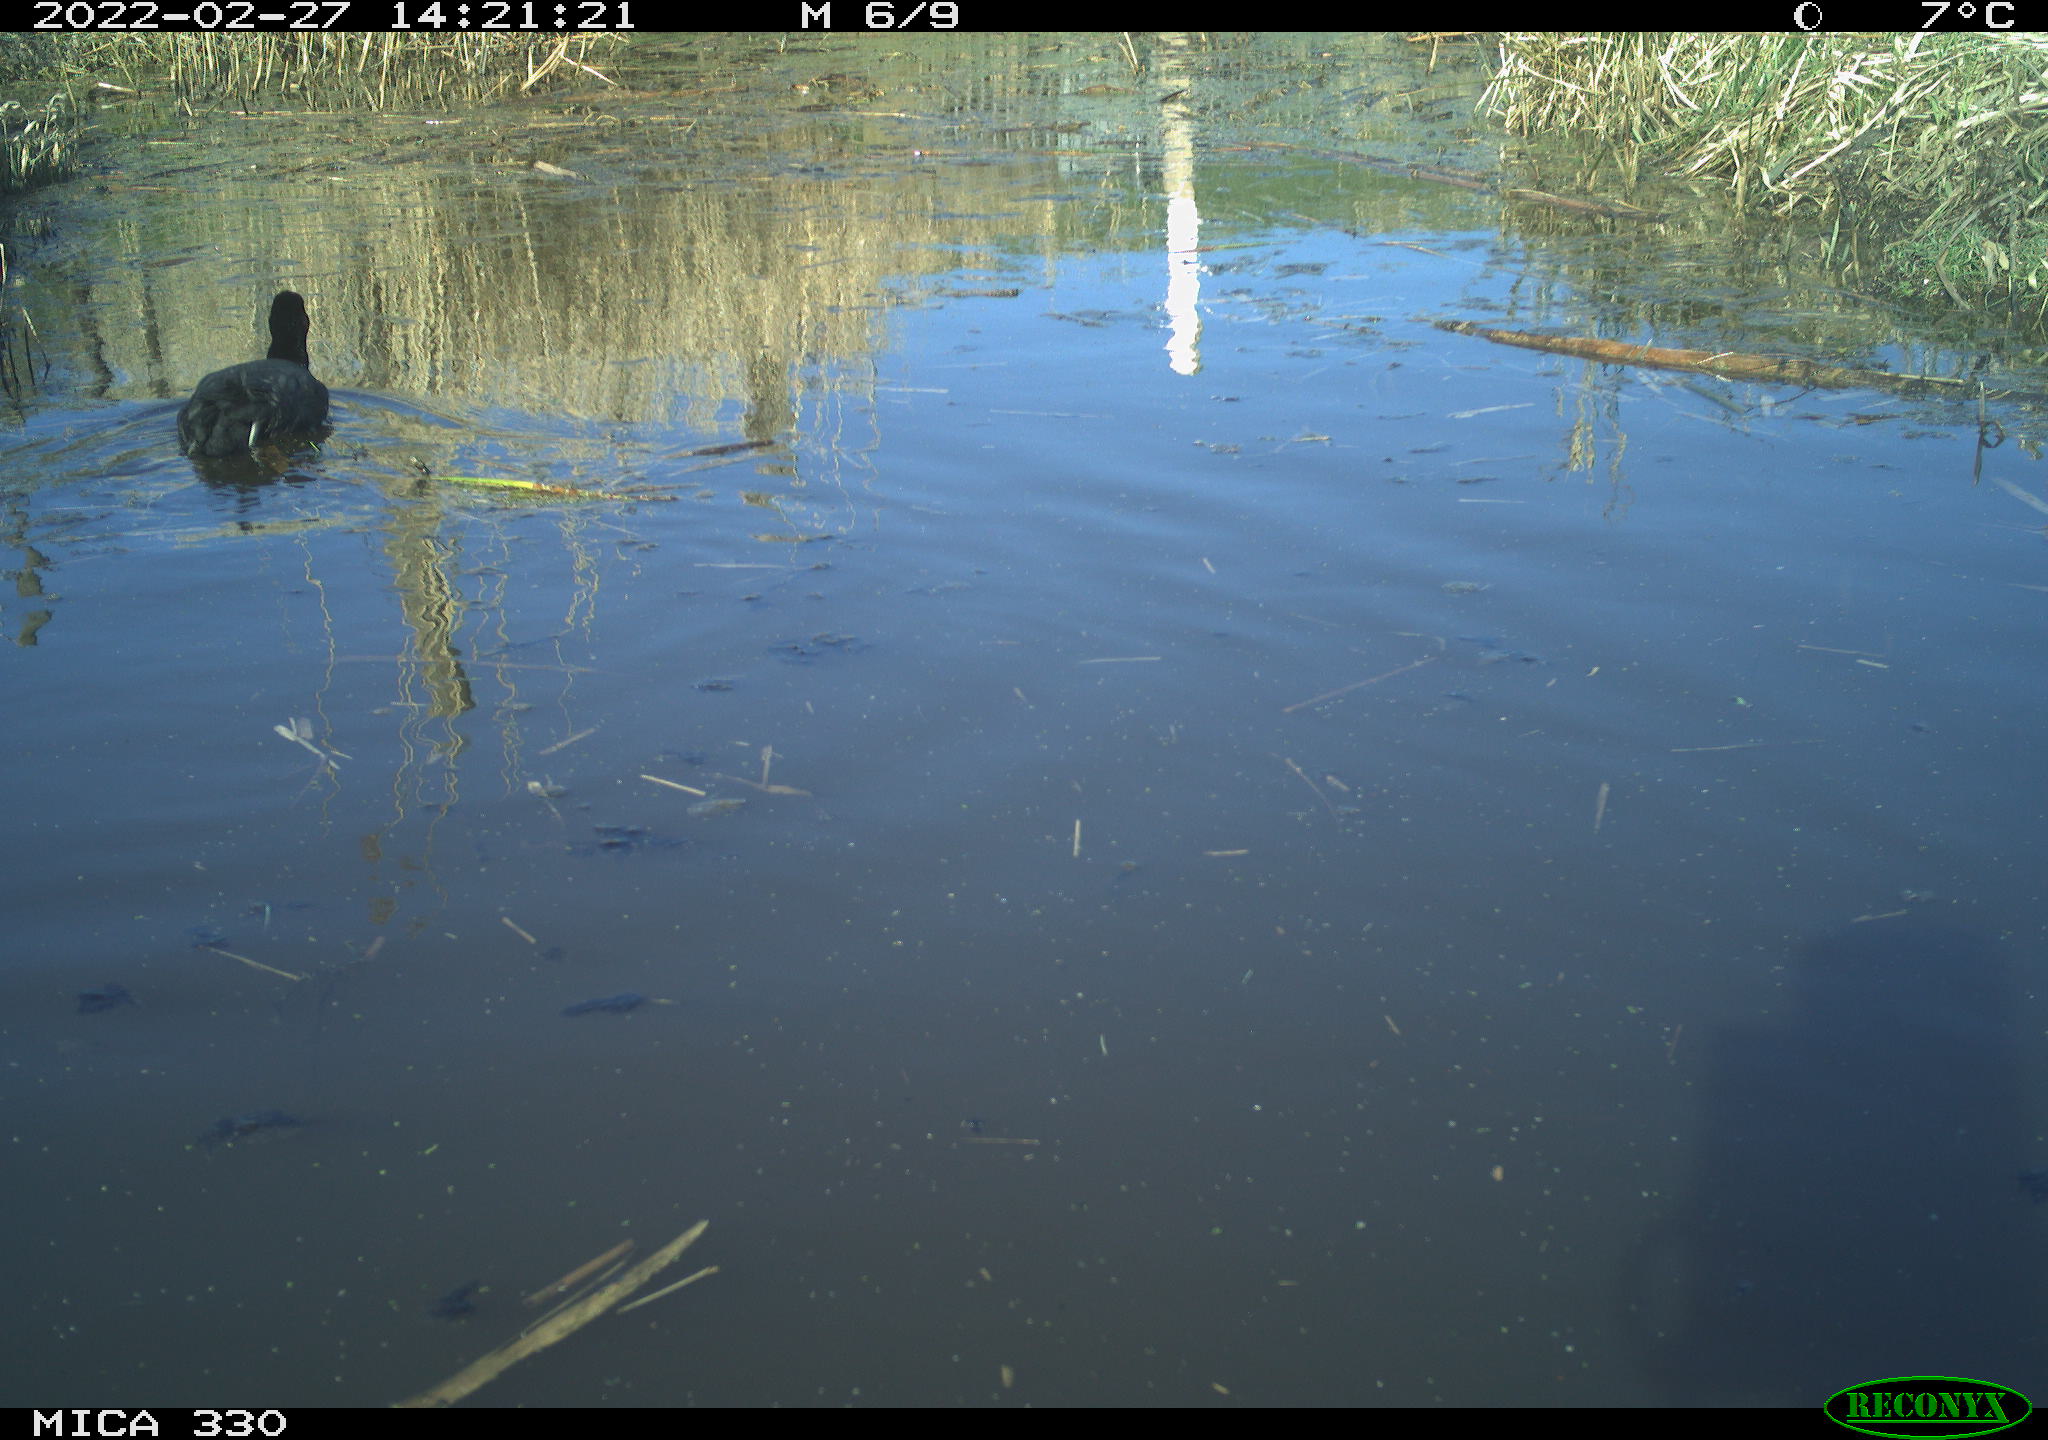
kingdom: Animalia
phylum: Chordata
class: Aves
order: Gruiformes
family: Rallidae
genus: Fulica
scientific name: Fulica atra
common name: Eurasian coot
